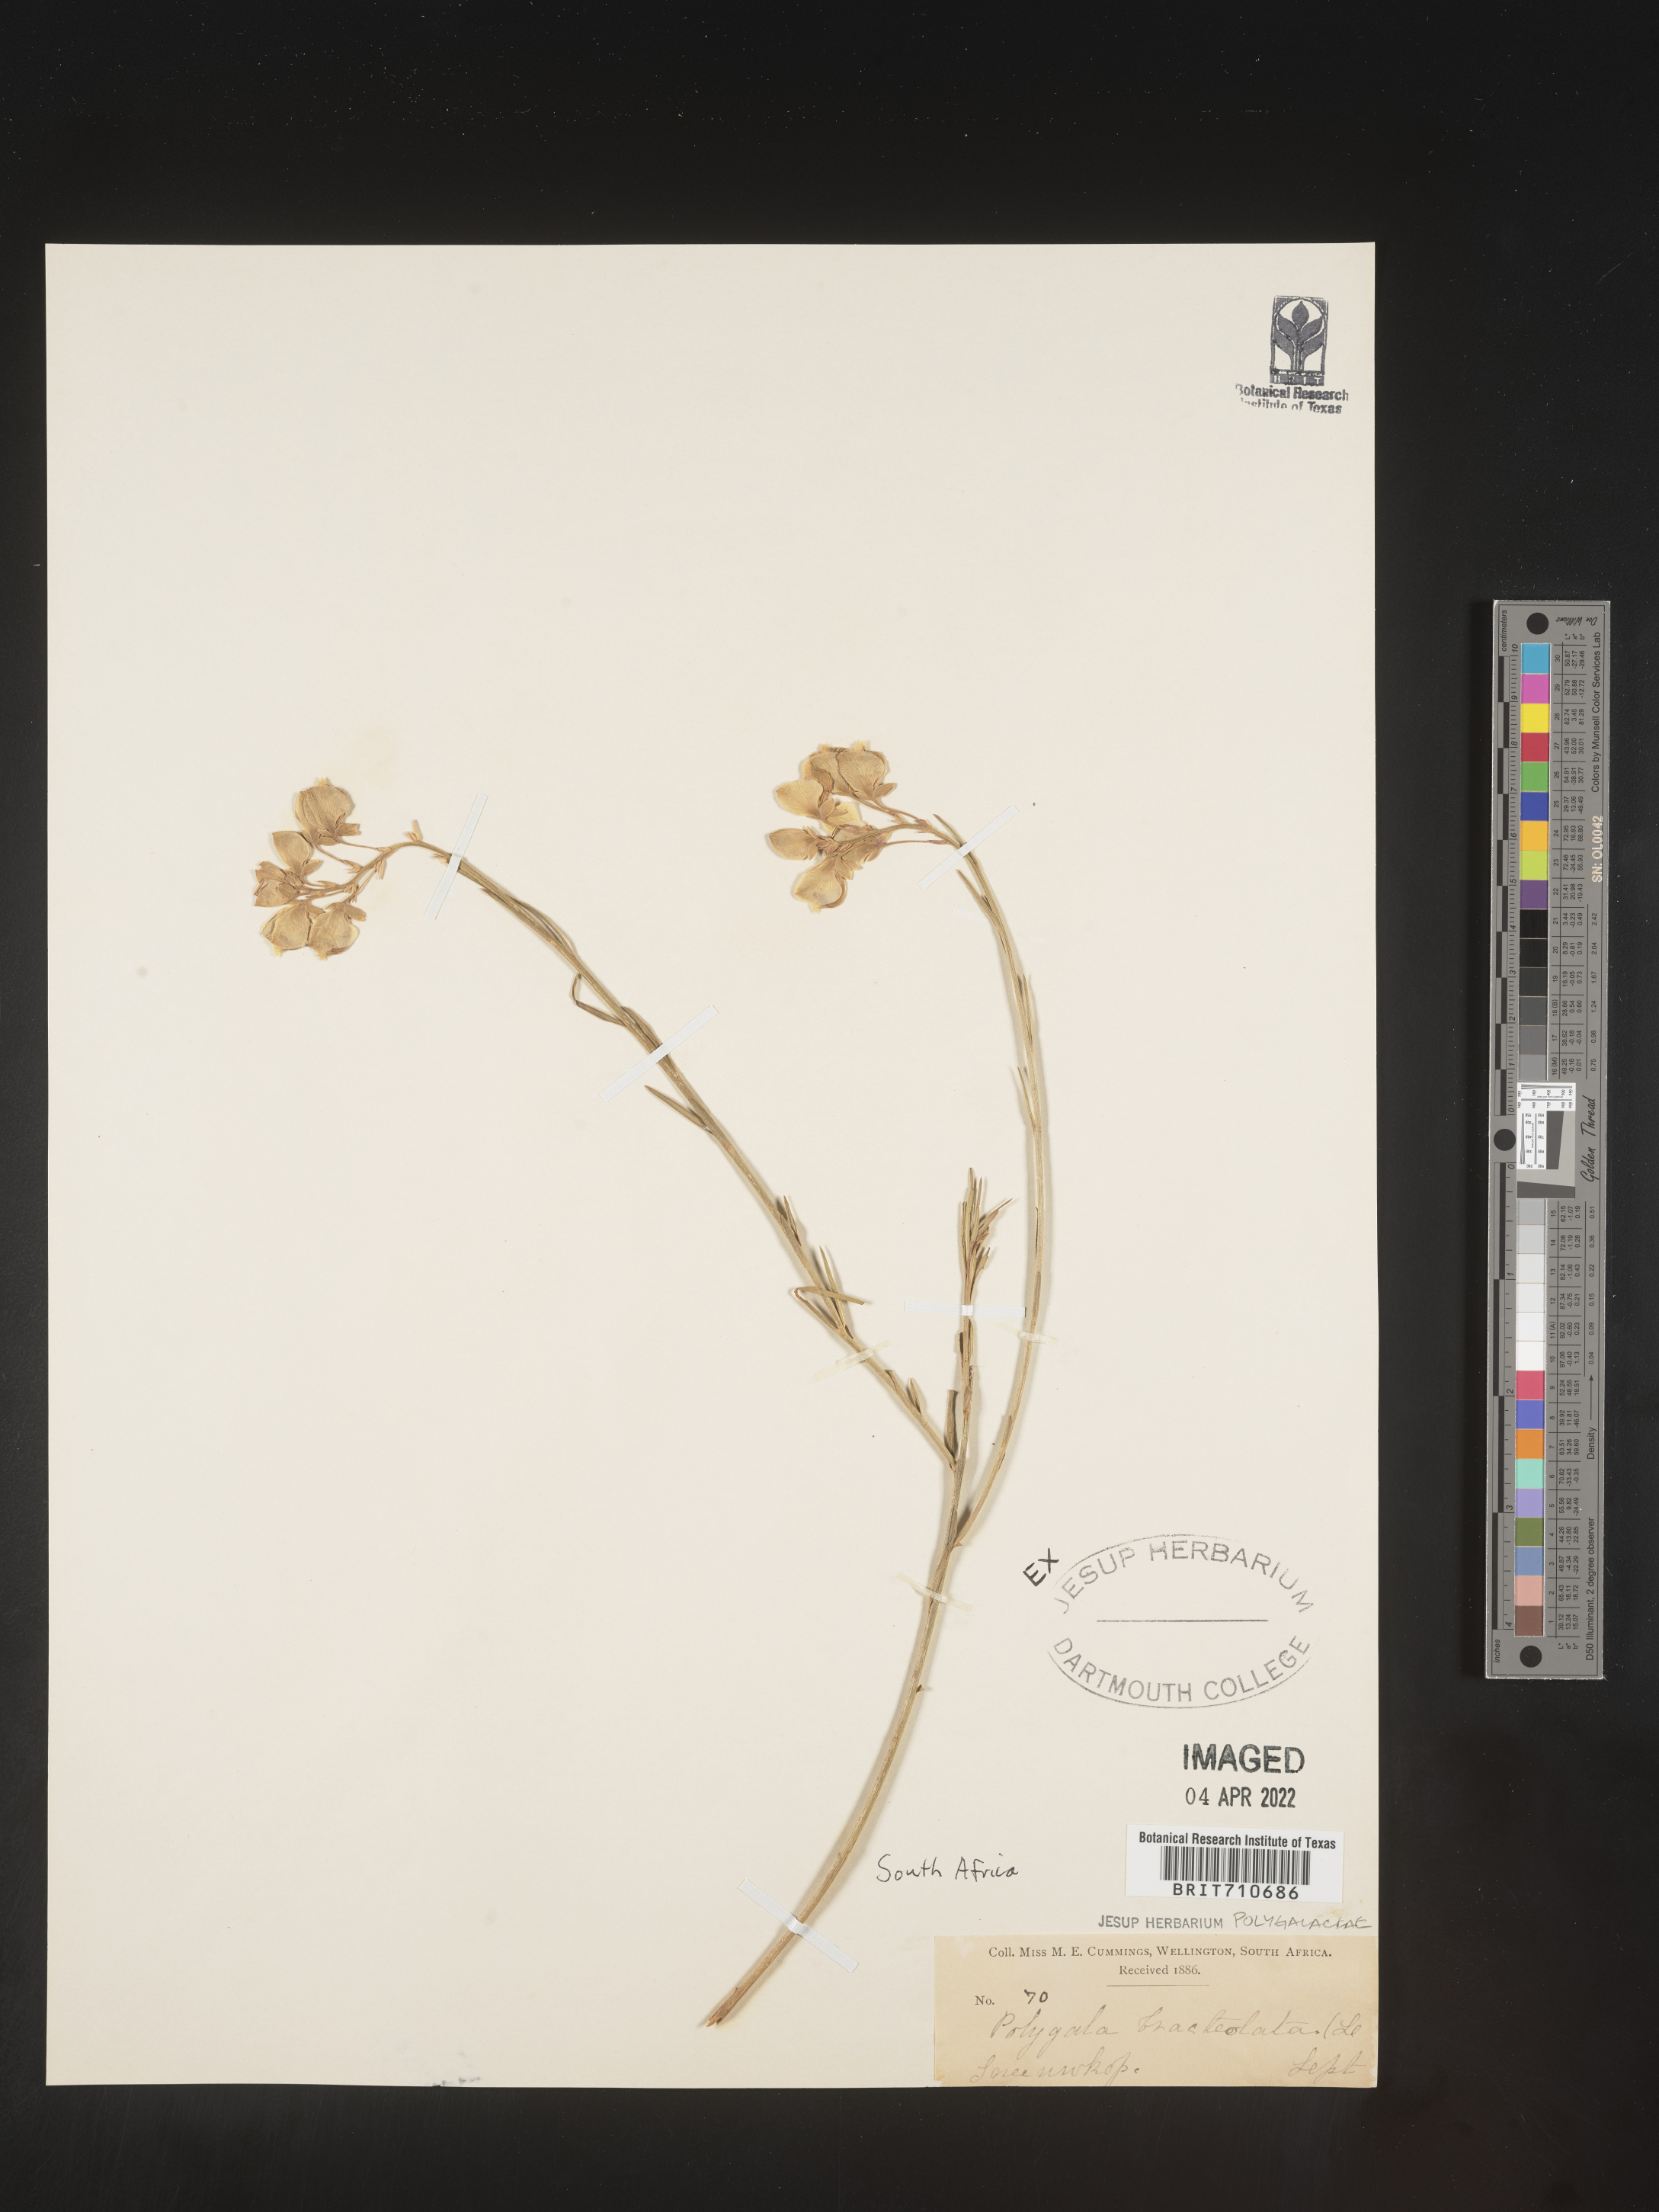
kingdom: Plantae
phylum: Tracheophyta
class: Magnoliopsida
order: Fabales
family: Polygalaceae
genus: Polygala
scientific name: Polygala
